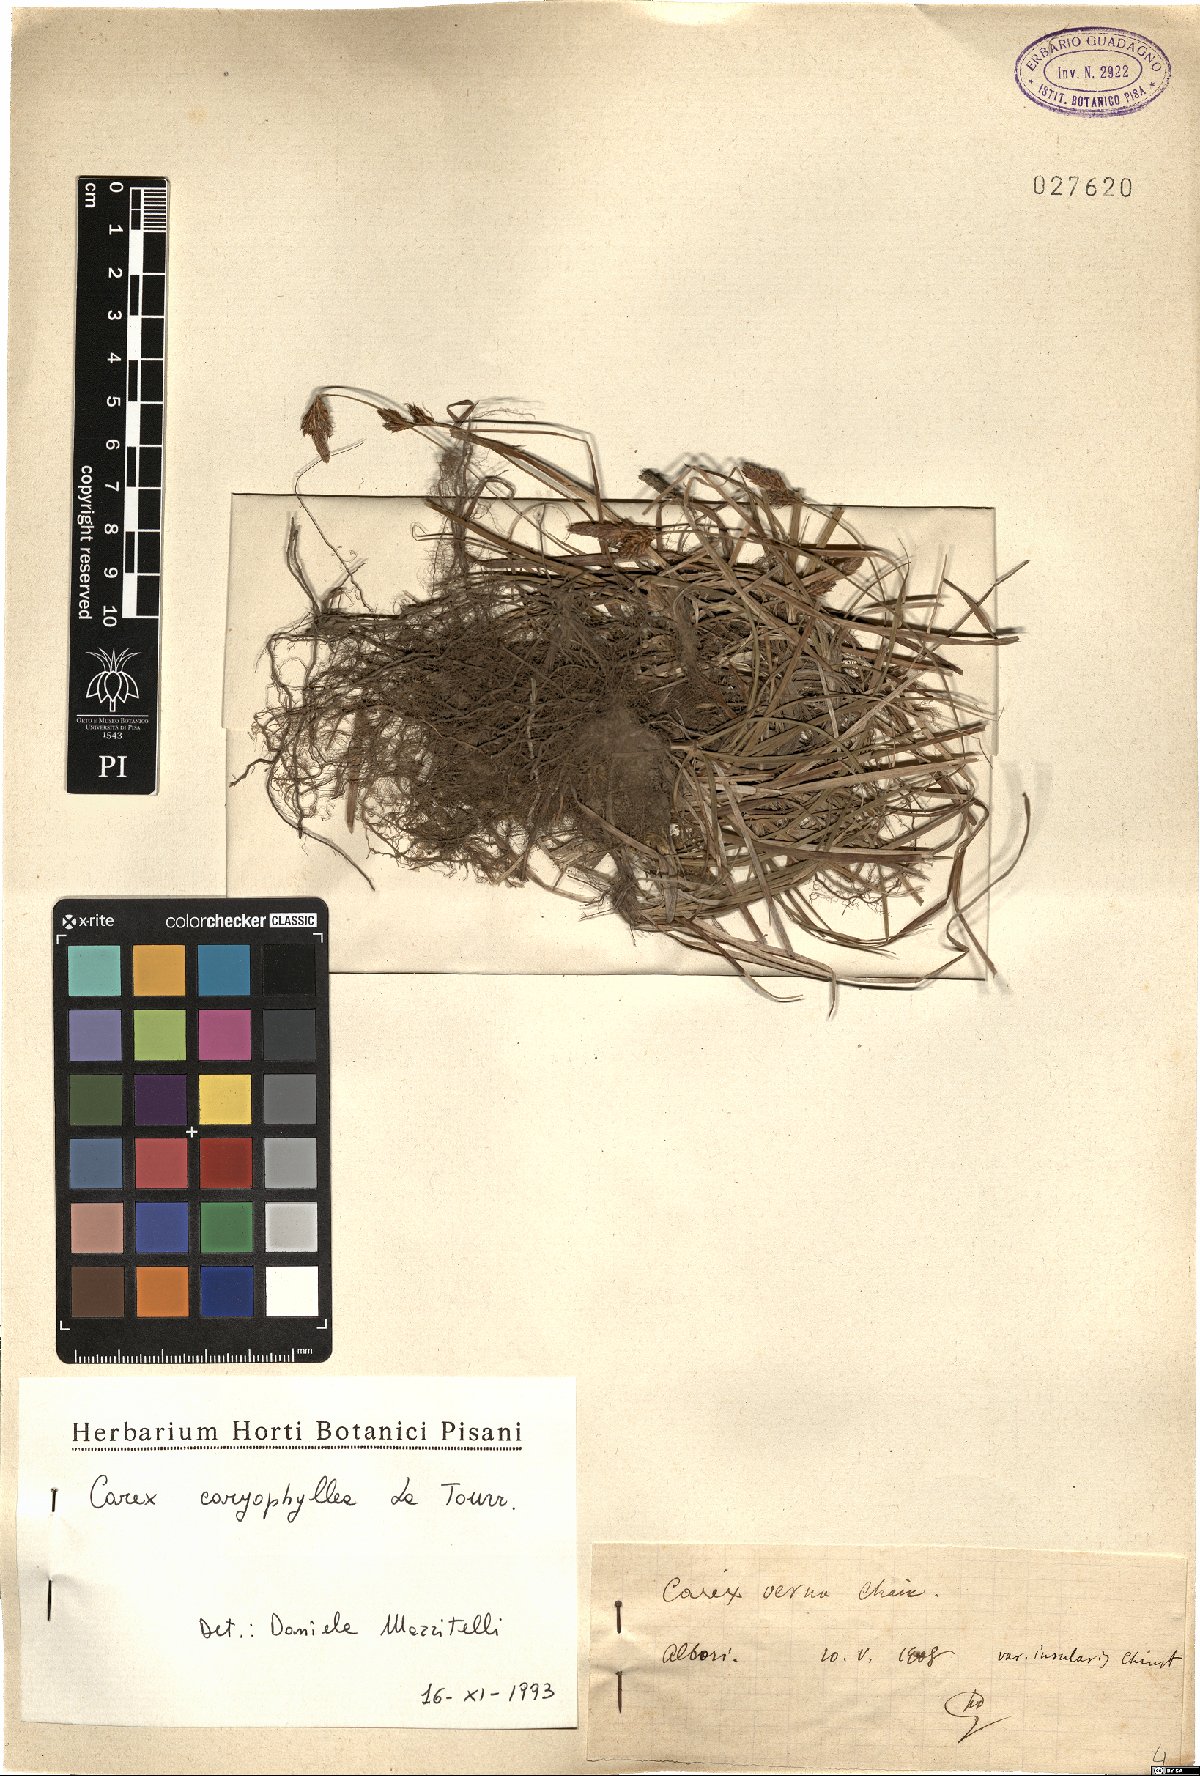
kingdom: Plantae
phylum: Tracheophyta
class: Liliopsida
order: Poales
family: Cyperaceae
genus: Carex
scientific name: Carex caryophyllea
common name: Spring sedge
